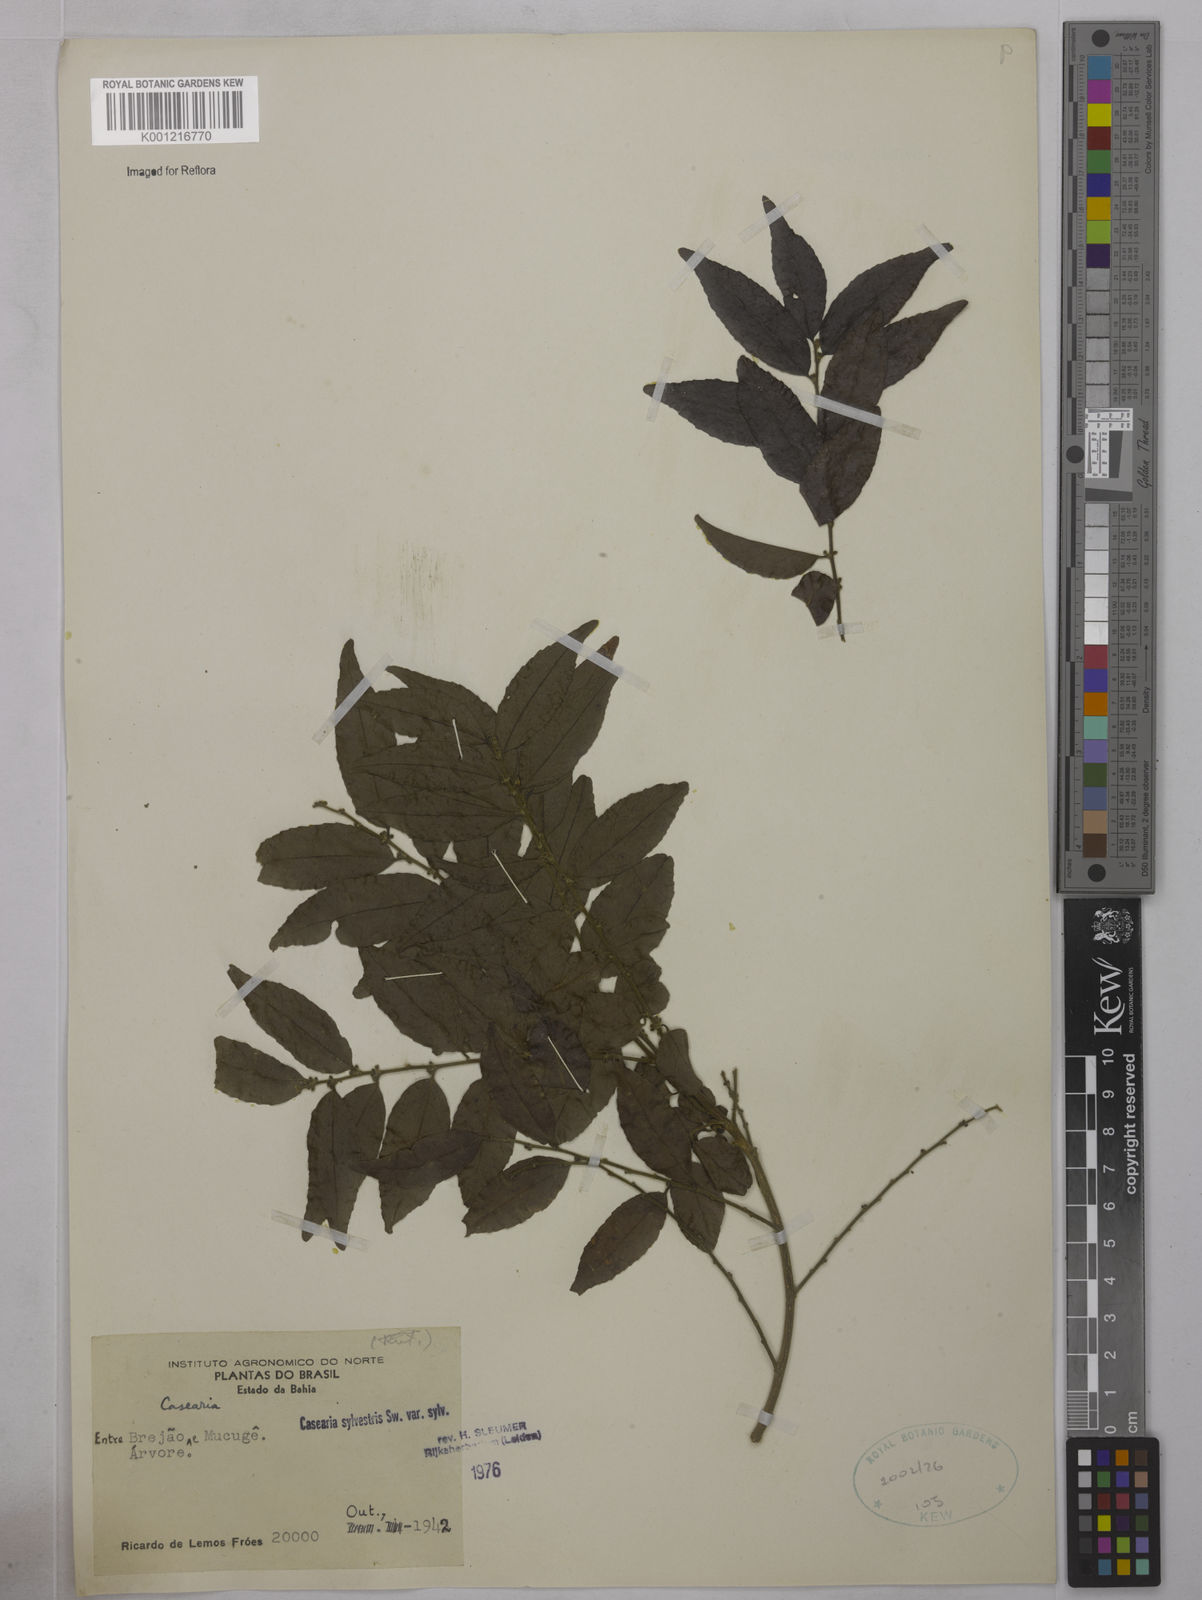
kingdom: Plantae
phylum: Tracheophyta
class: Magnoliopsida
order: Malpighiales
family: Salicaceae
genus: Casearia
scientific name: Casearia sylvestris
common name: Wild sage
